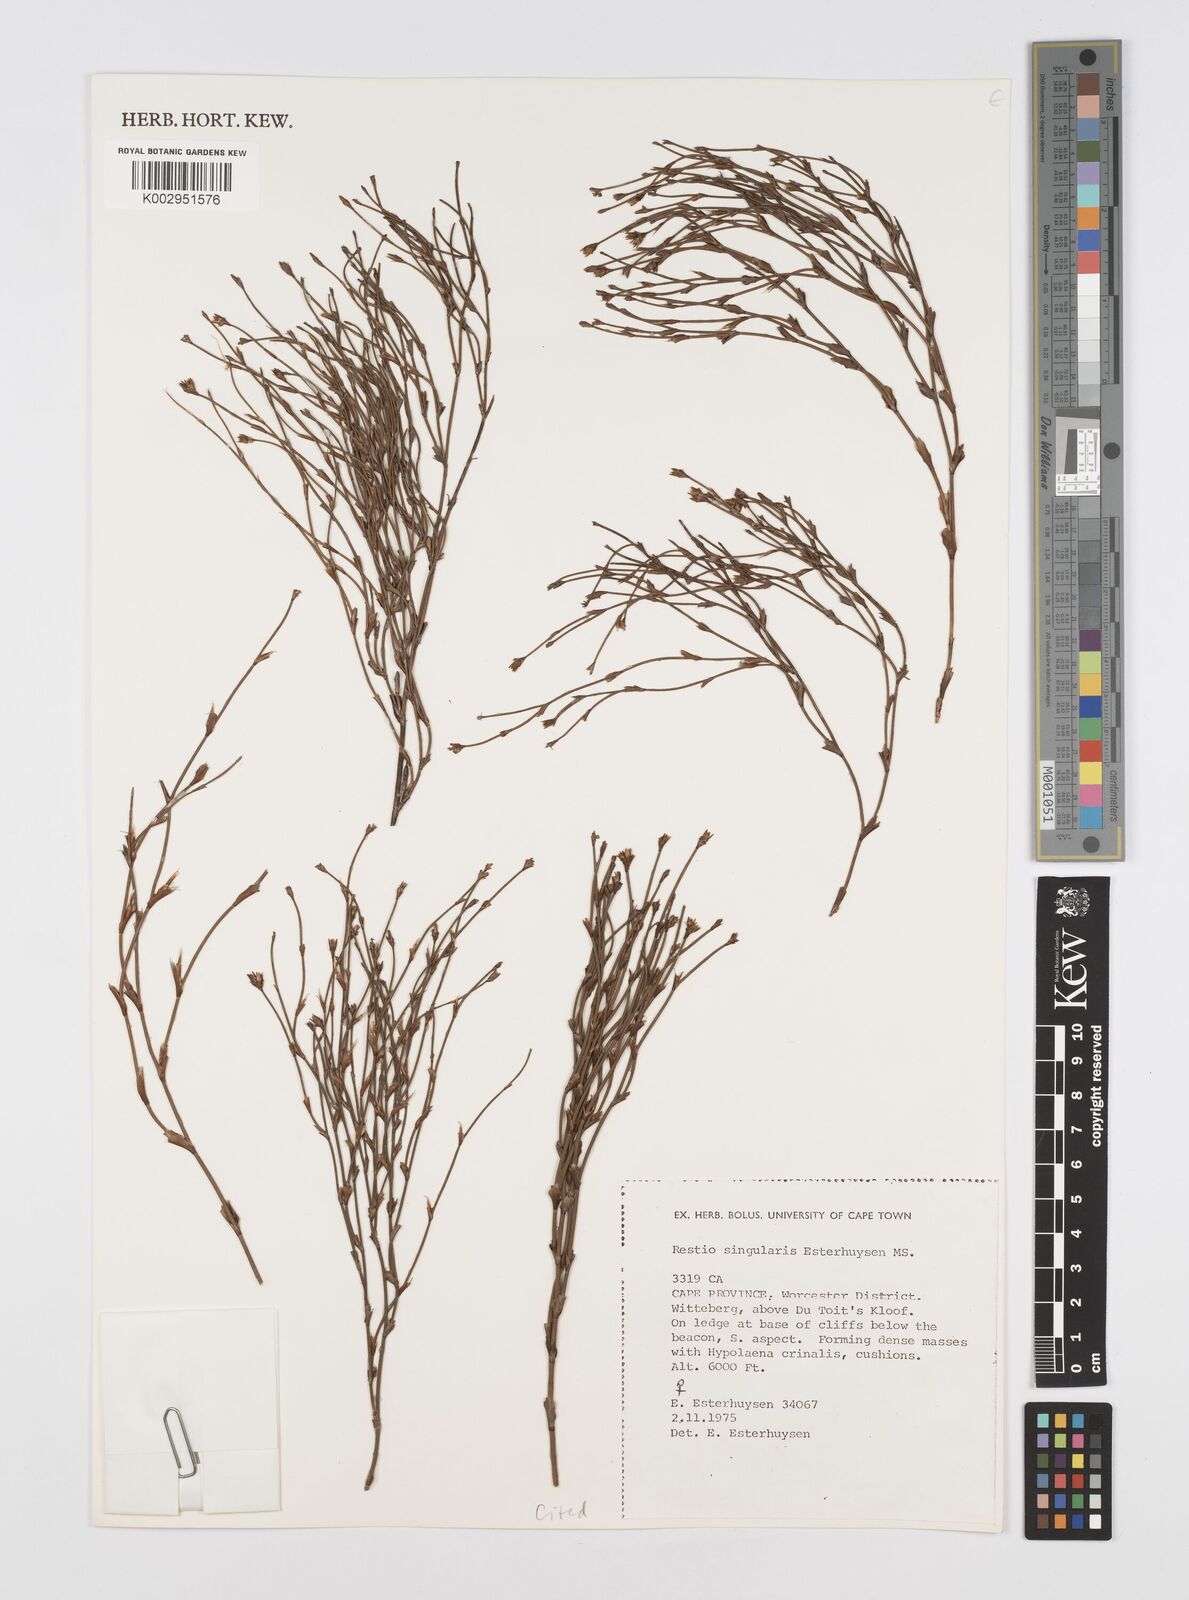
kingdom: Plantae
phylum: Tracheophyta
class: Liliopsida
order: Poales
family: Restionaceae
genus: Restio
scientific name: Restio singularis
